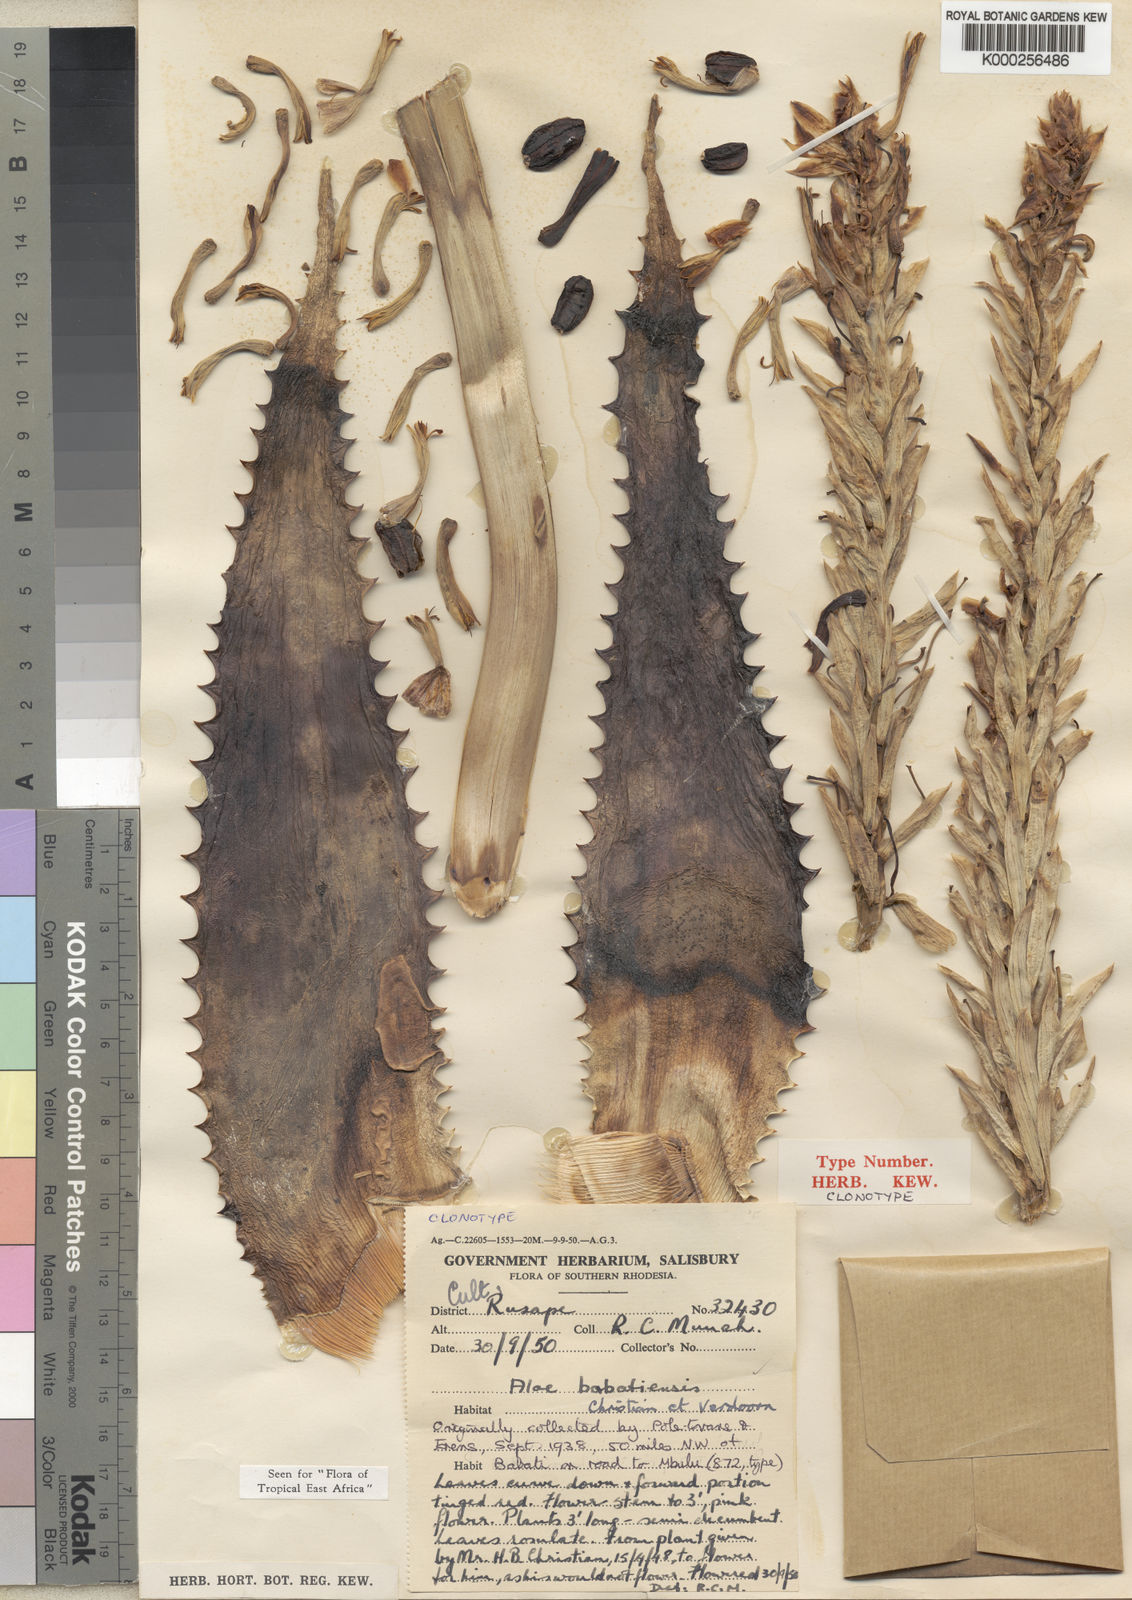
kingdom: Plantae
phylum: Tracheophyta
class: Liliopsida
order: Asparagales
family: Asphodelaceae
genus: Aloe
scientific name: Aloe babatiensis
